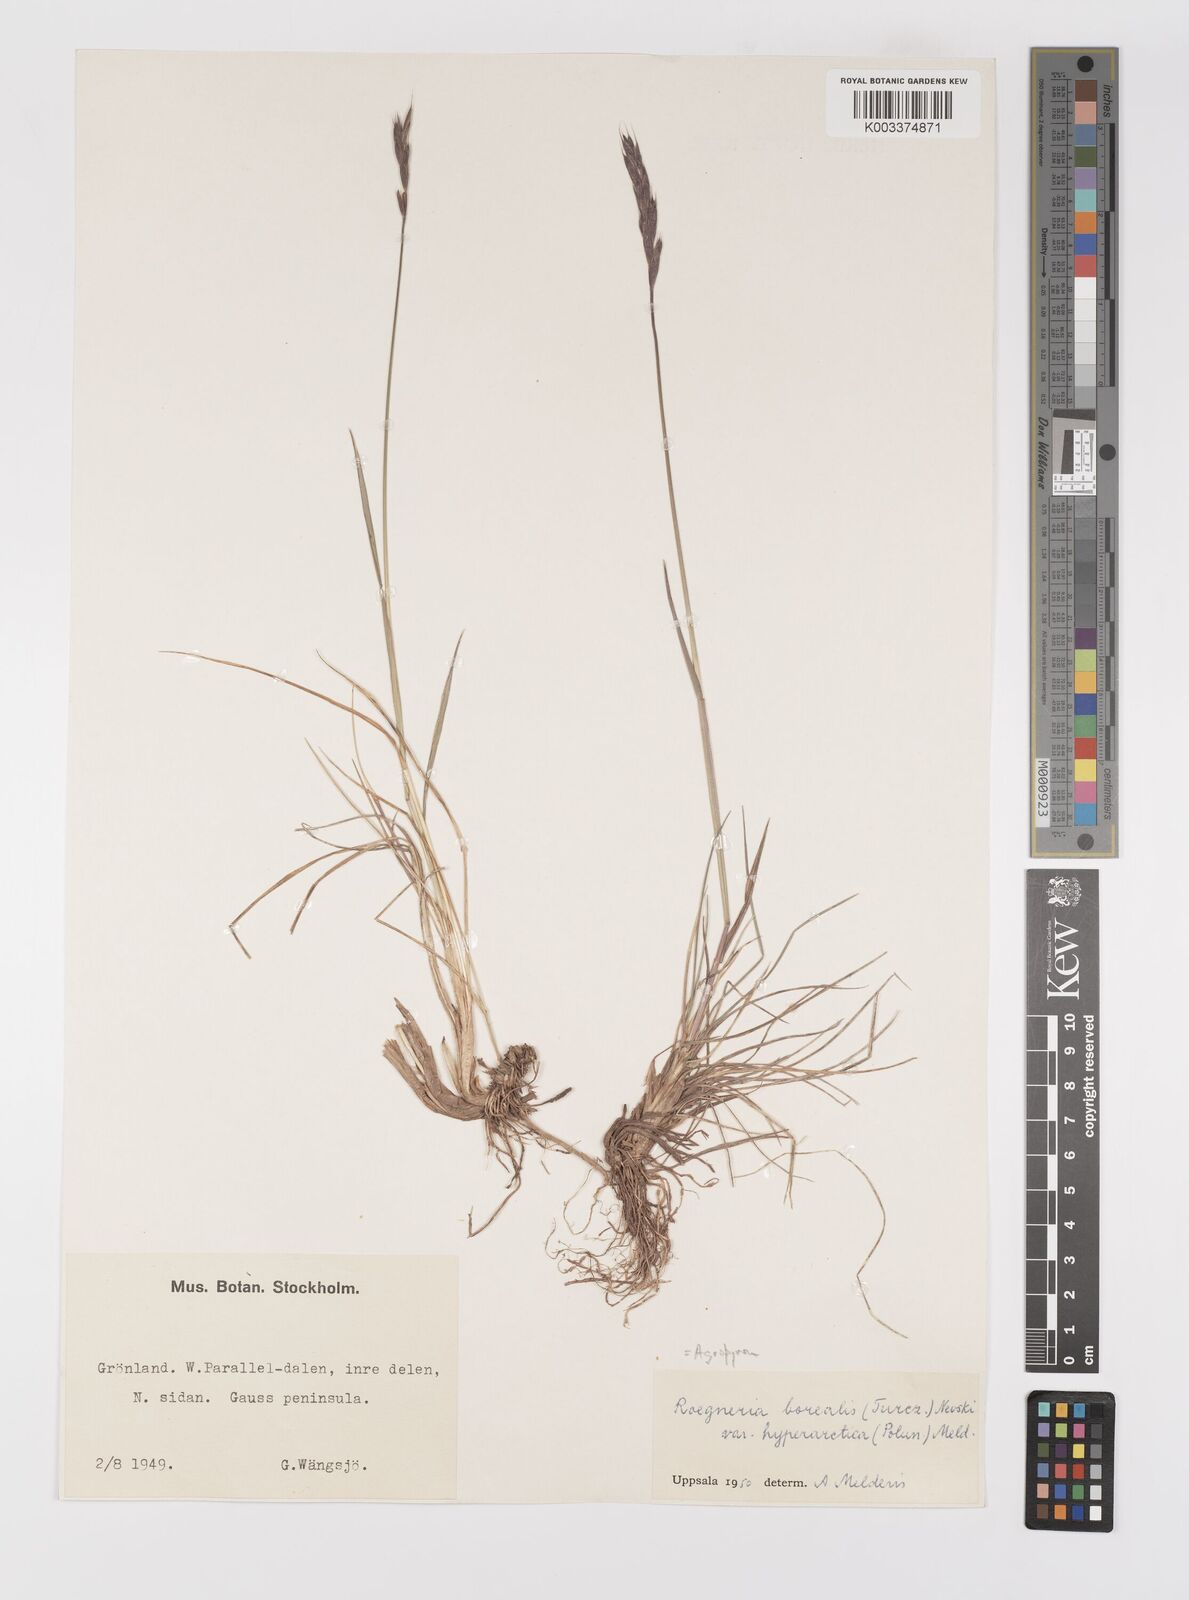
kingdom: Plantae
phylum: Tracheophyta
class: Liliopsida
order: Poales
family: Poaceae
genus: Elymus
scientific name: Elymus violaceus
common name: Arctic wheatgrass
